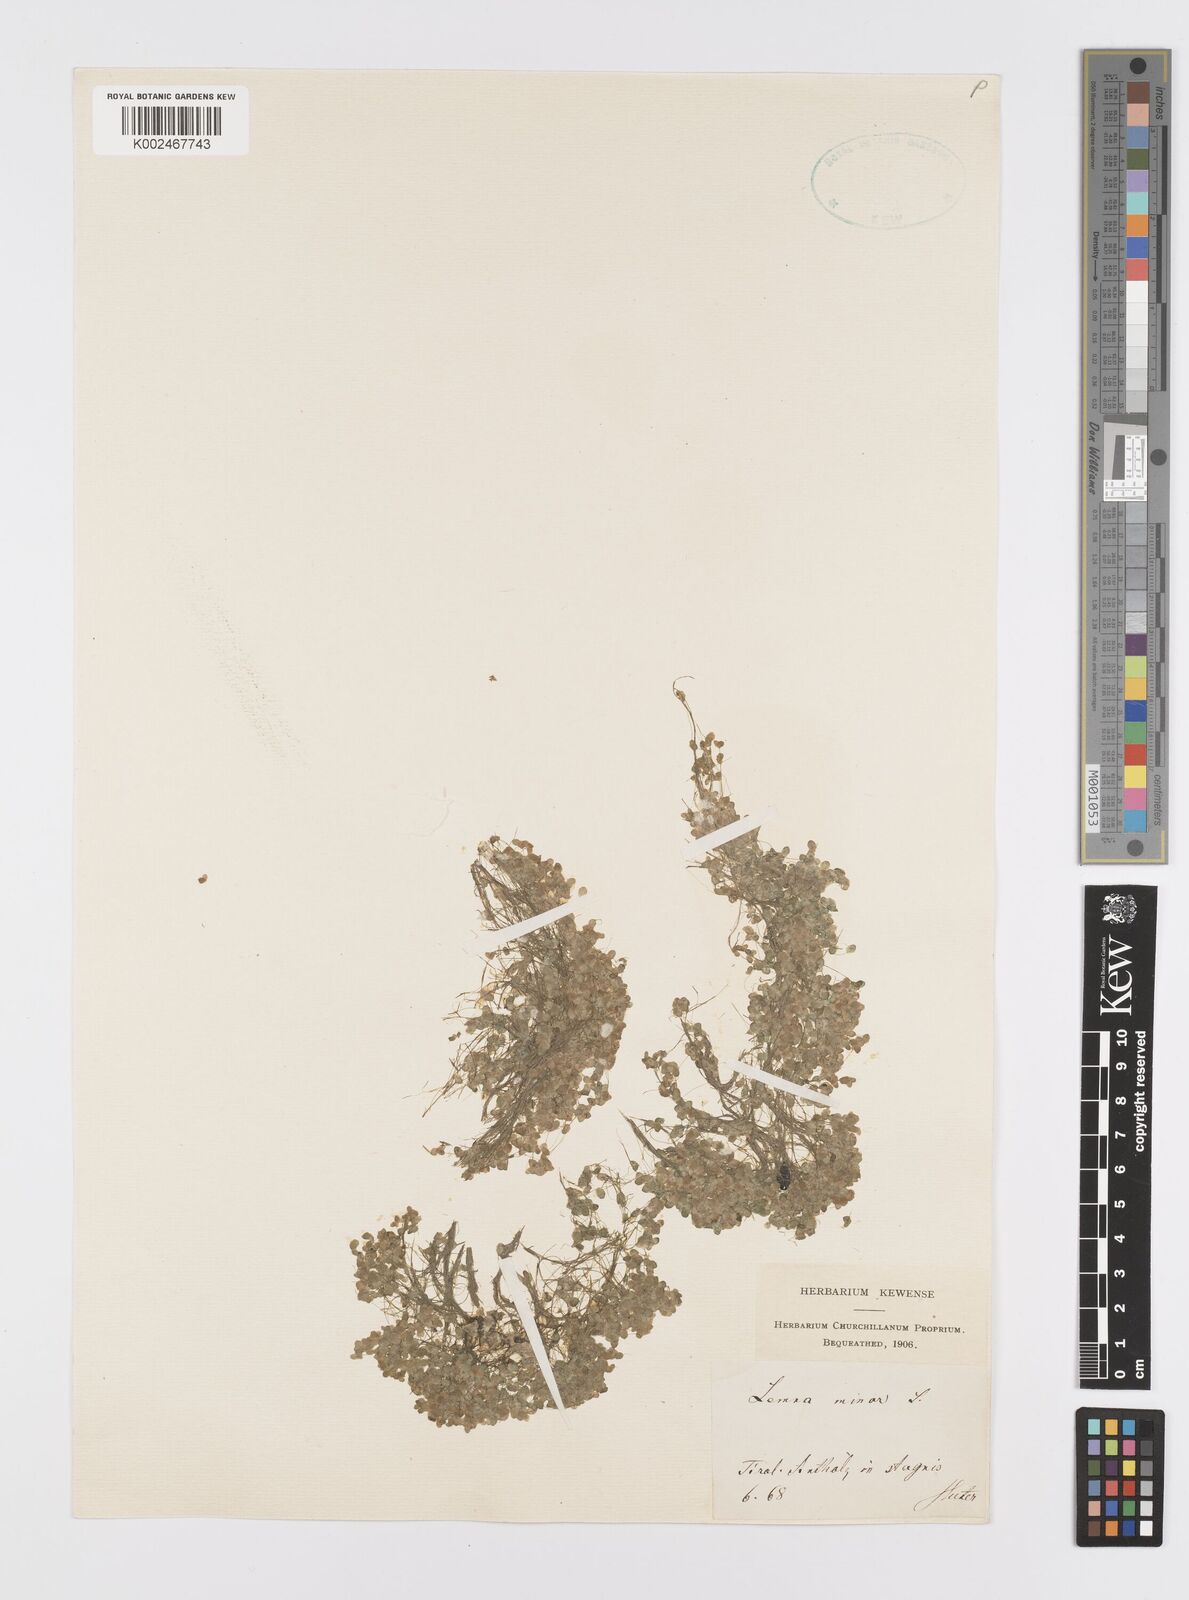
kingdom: Plantae
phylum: Tracheophyta
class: Liliopsida
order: Alismatales
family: Araceae
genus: Lemna
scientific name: Lemna minor
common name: Common duckweed
